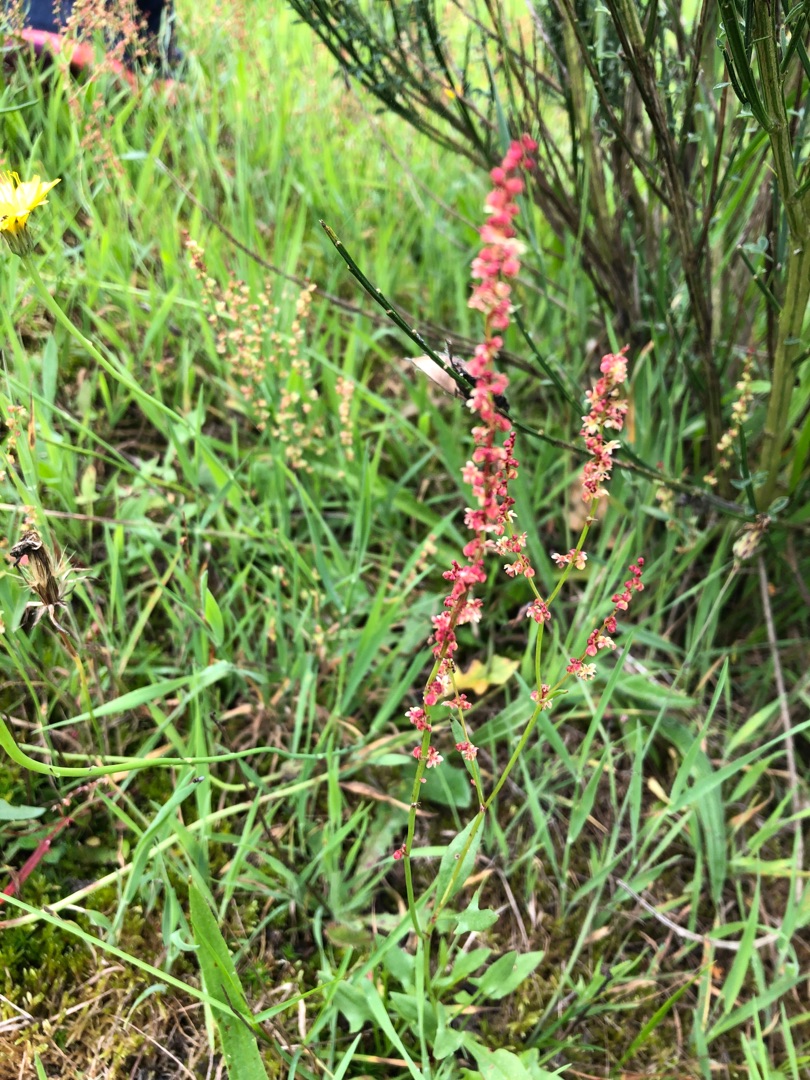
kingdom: Plantae
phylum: Tracheophyta
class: Magnoliopsida
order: Caryophyllales
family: Polygonaceae
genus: Rumex
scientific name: Rumex acetosella
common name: Rødknæ
